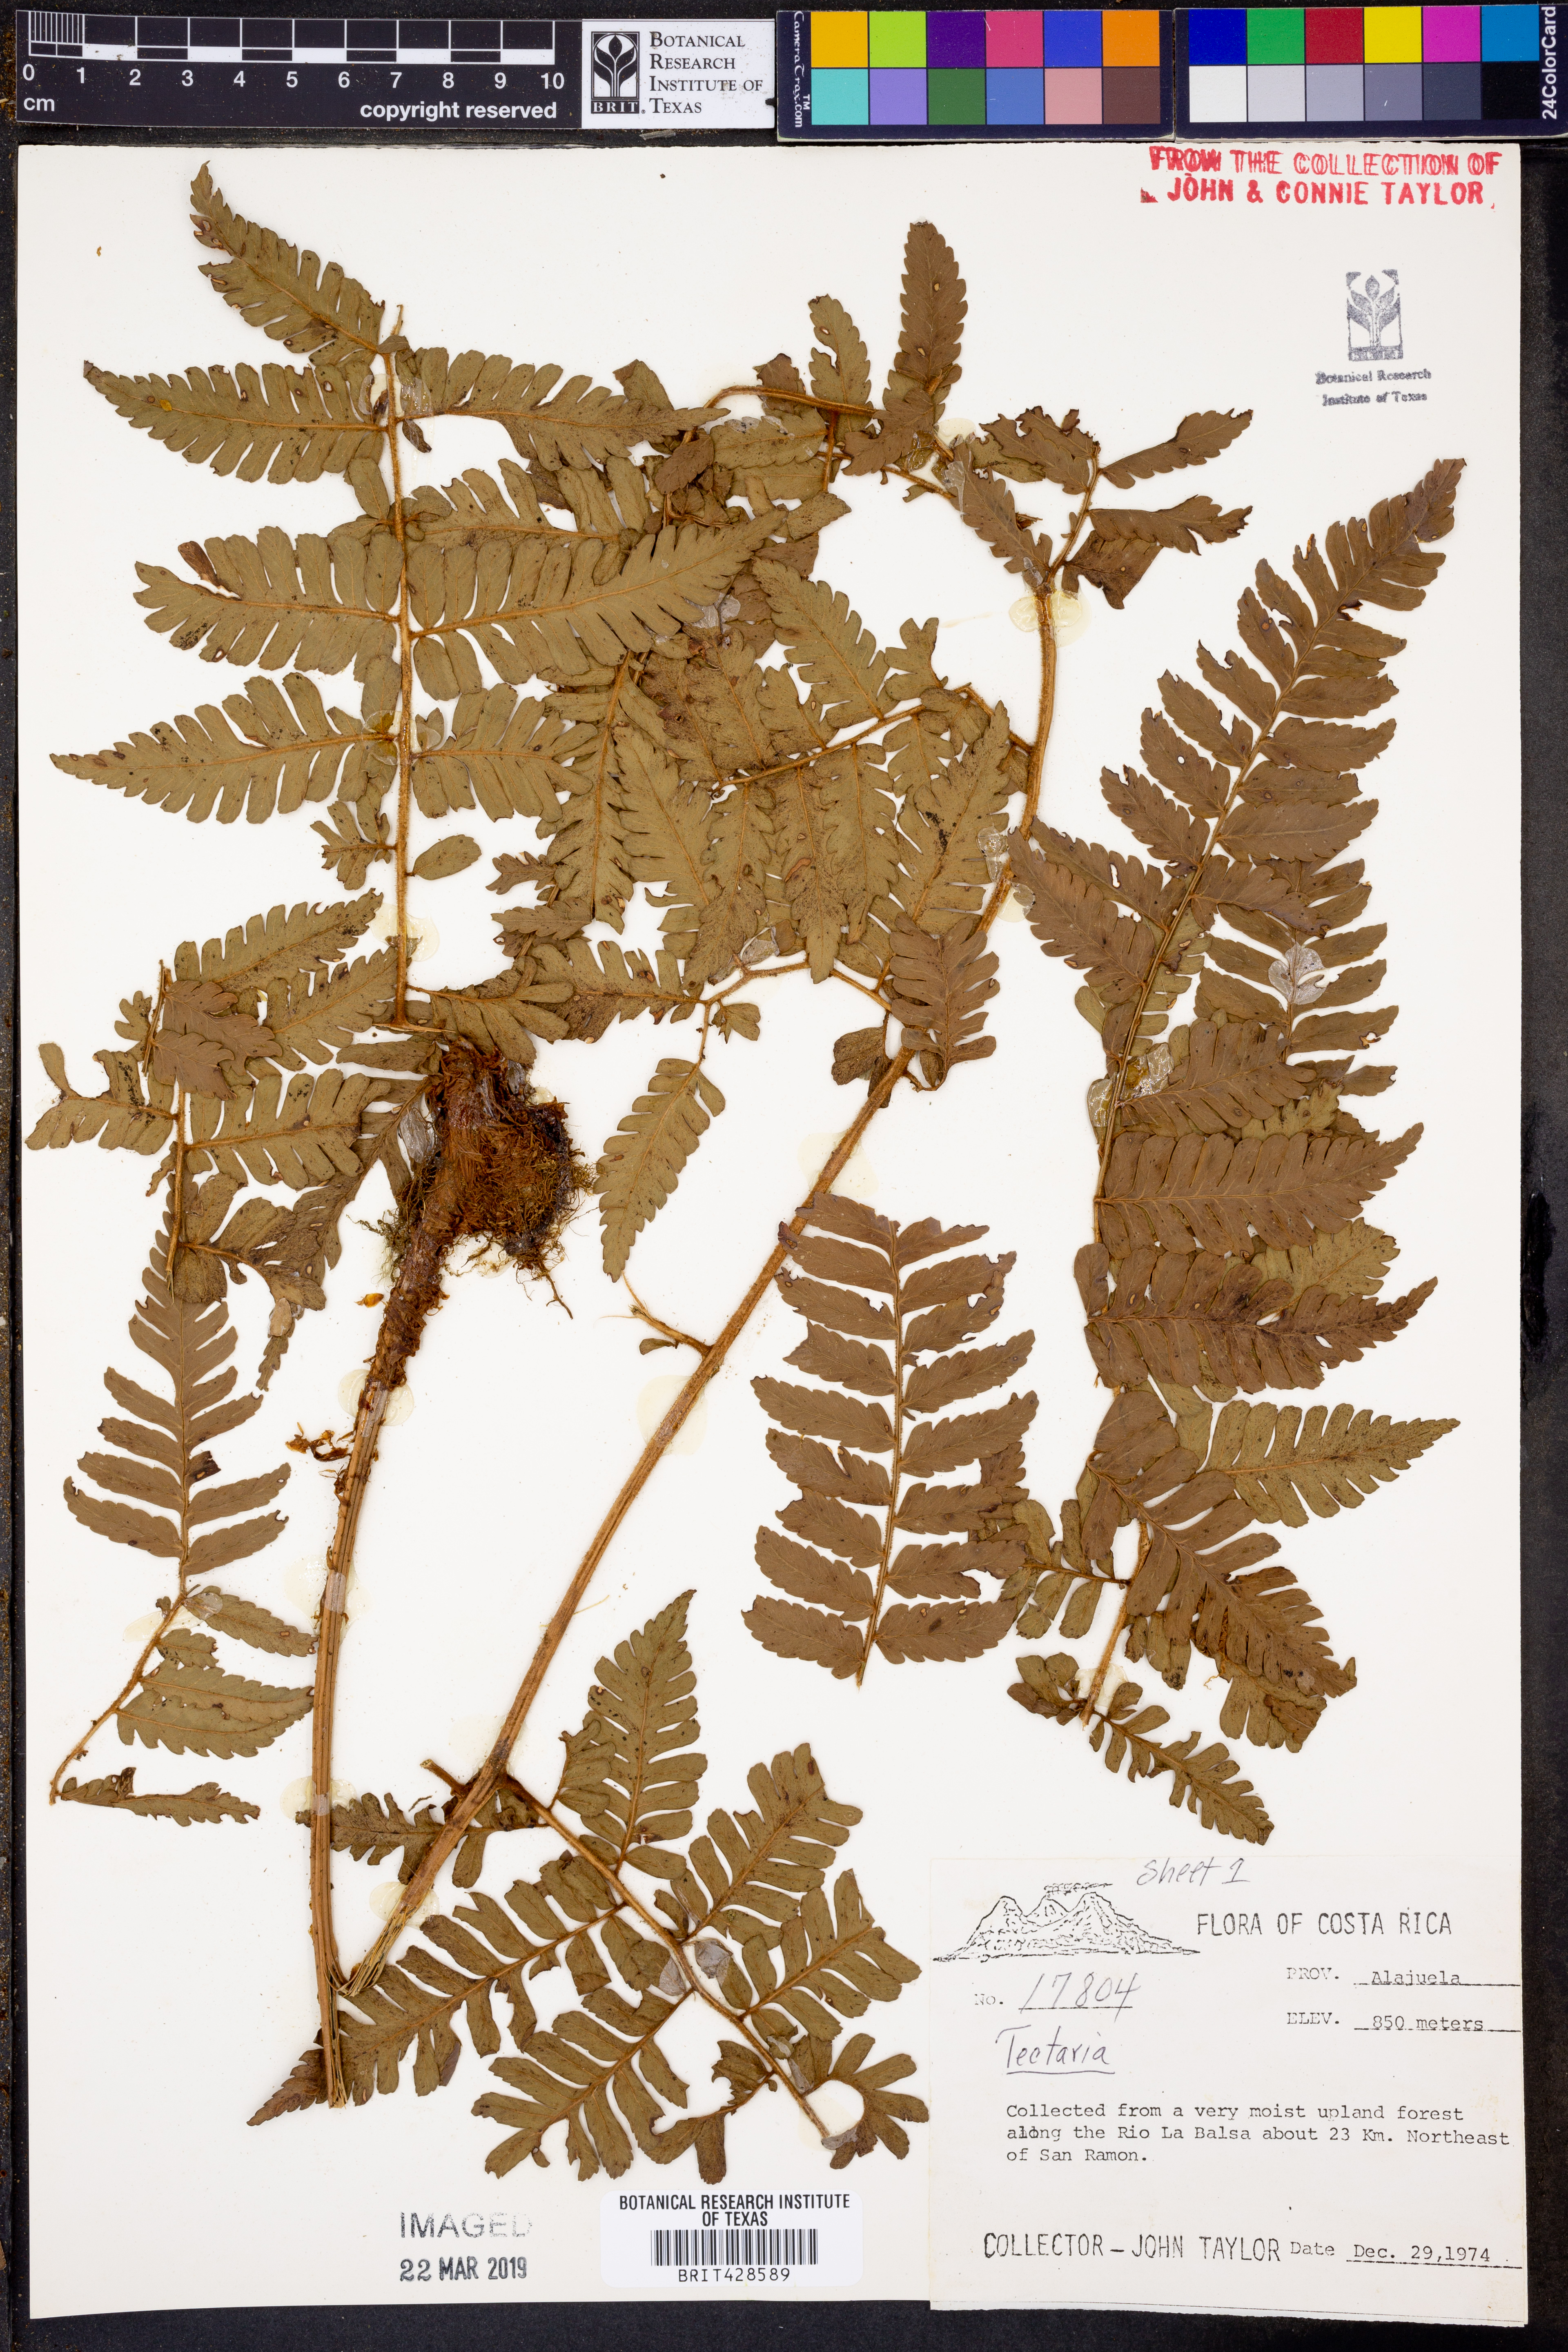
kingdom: Plantae
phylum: Tracheophyta
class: Polypodiopsida
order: Polypodiales
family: Tectariaceae
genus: Tectaria
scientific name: Tectaria
